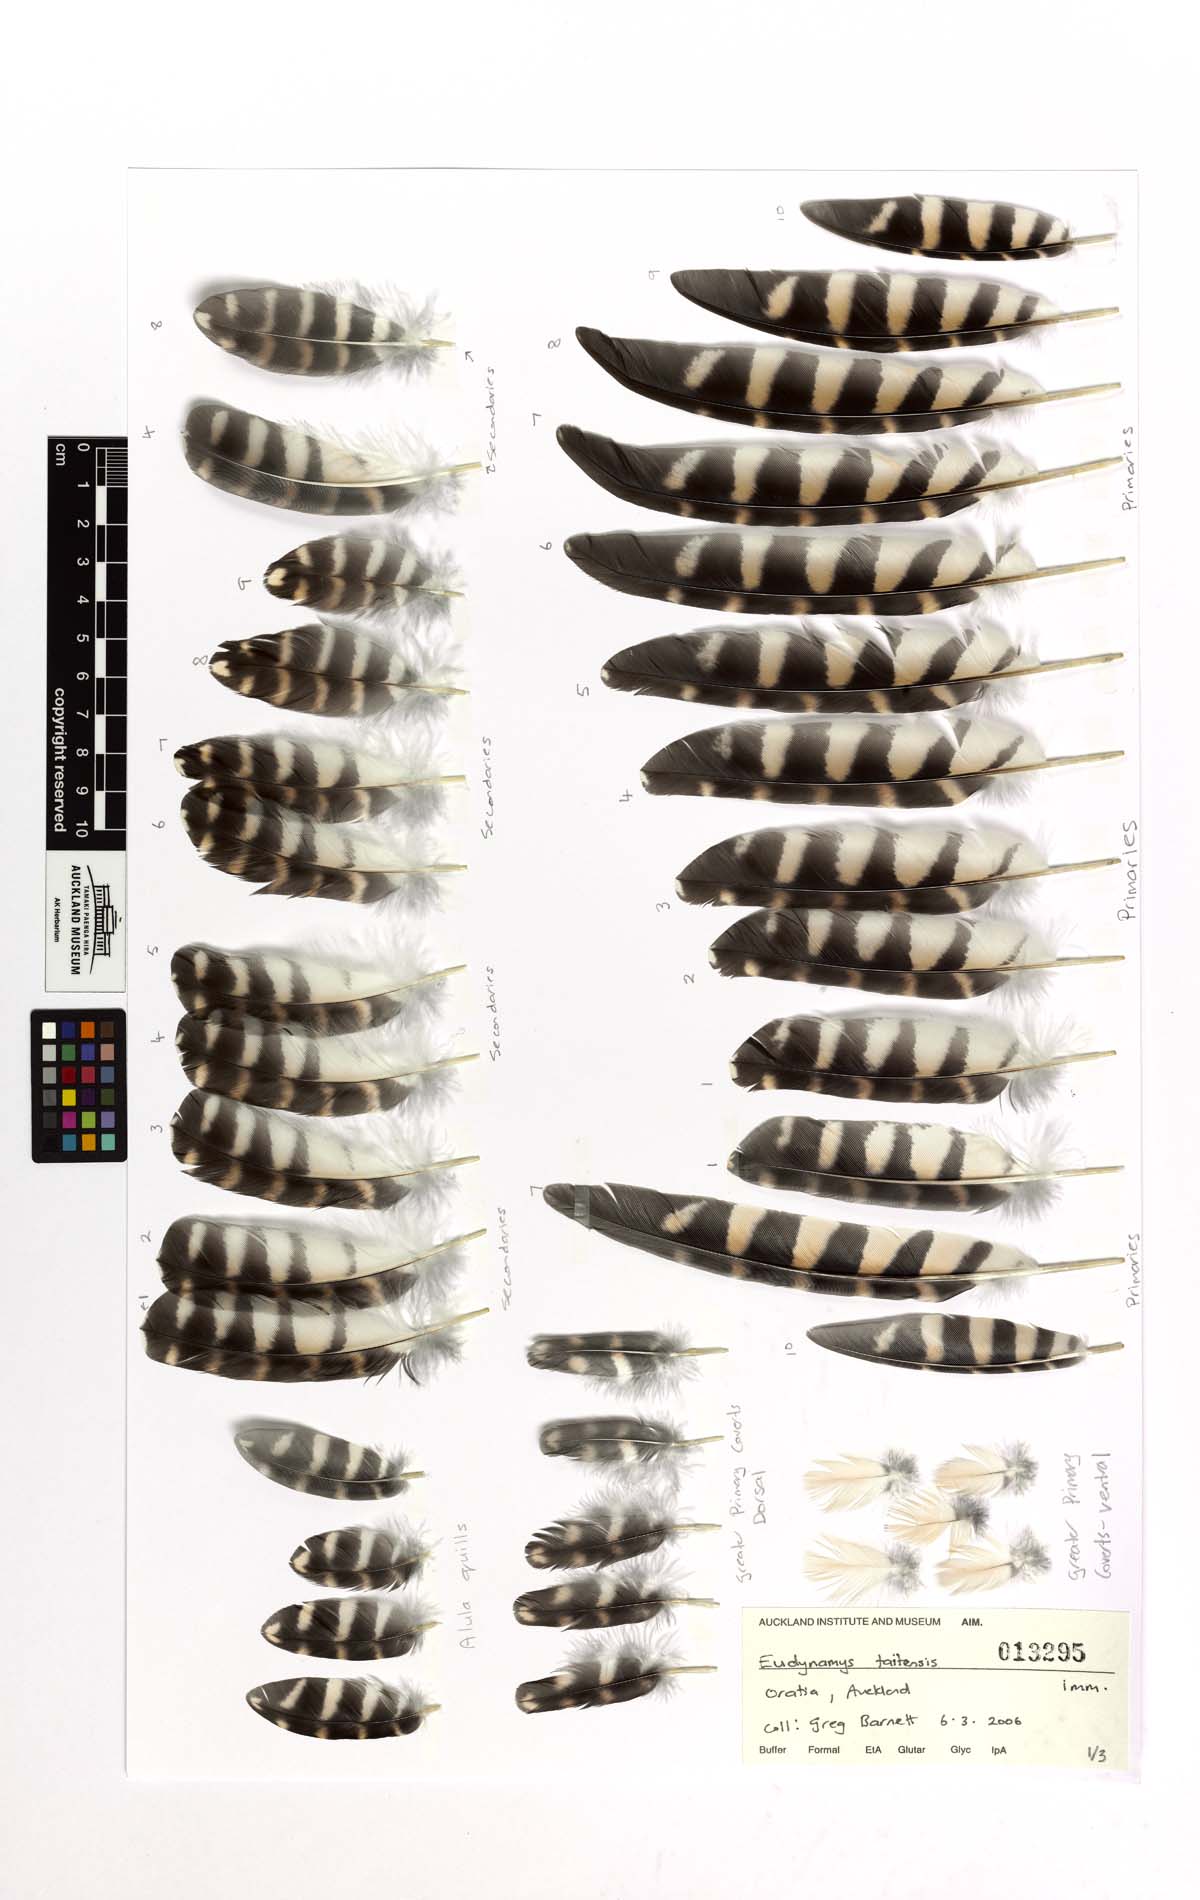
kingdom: Animalia
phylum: Chordata
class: Aves
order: Cuculiformes
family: Cuculidae
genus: Urodynamis
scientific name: Urodynamis taitensis
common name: Long-tailed koel
